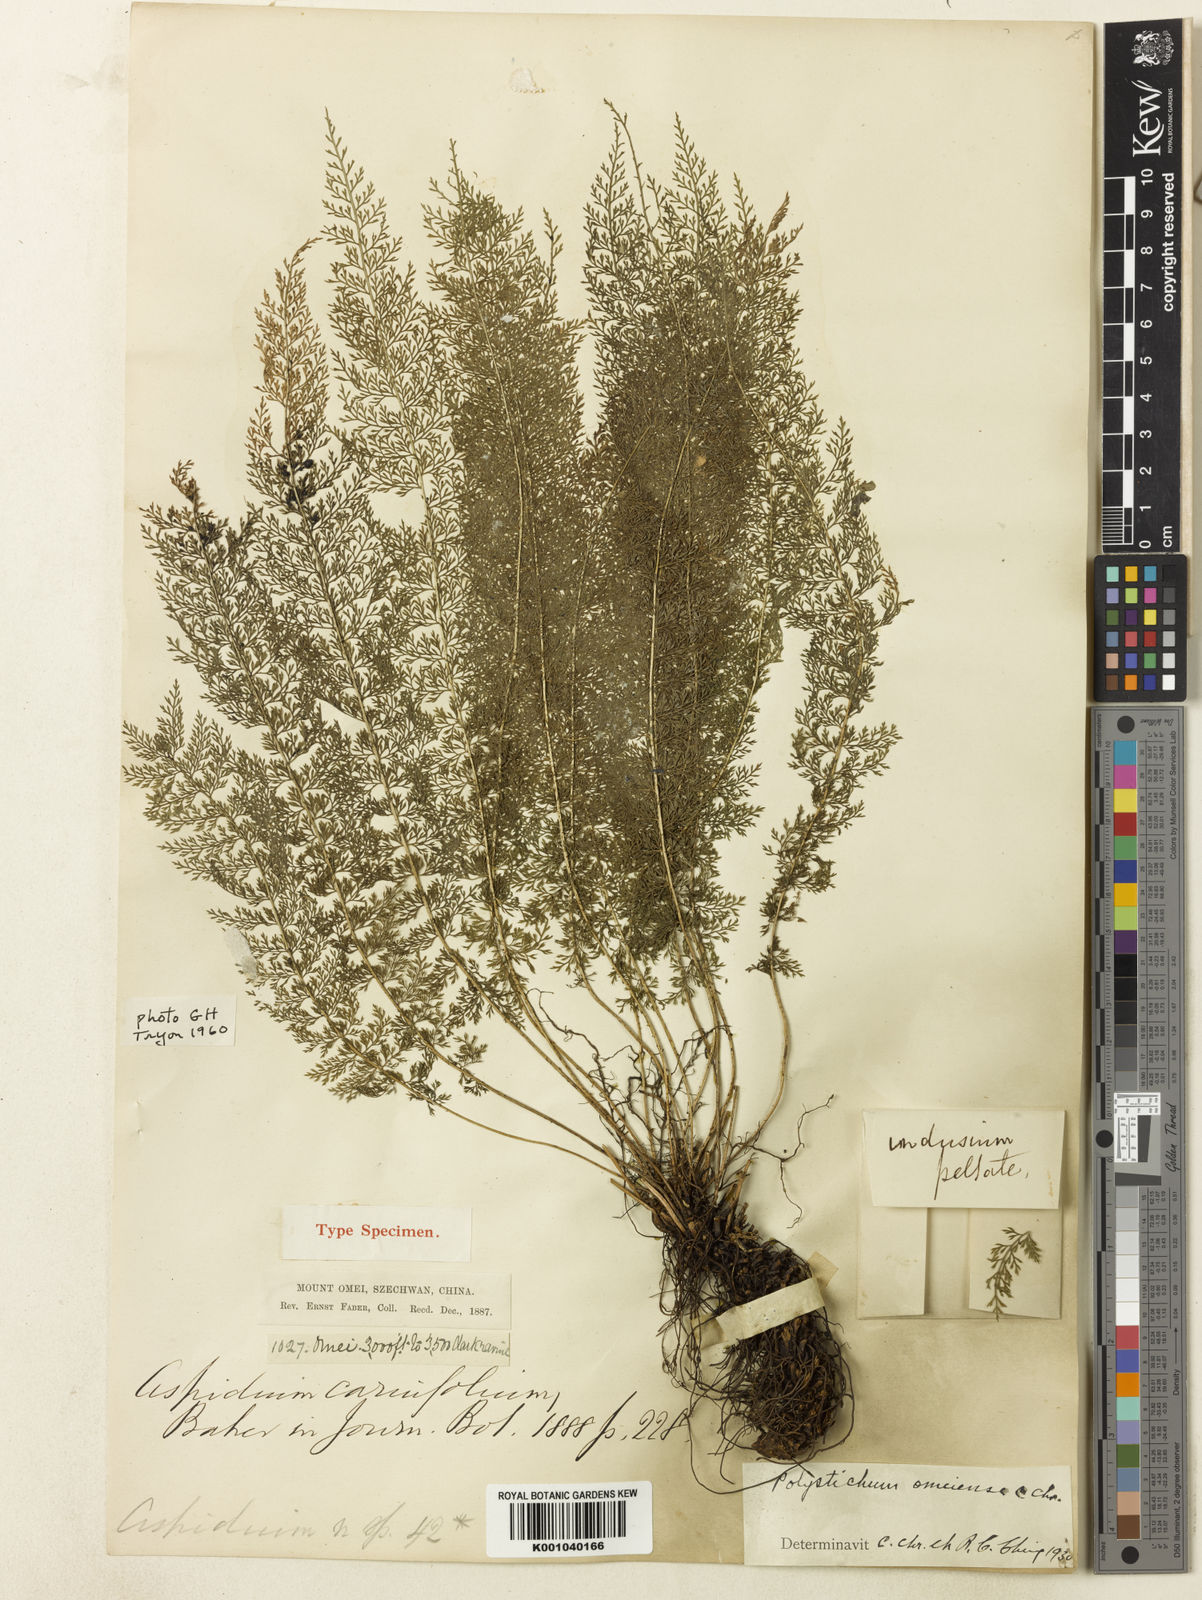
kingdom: Animalia
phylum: Arthropoda
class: Insecta
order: Hemiptera
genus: Acropelta
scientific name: Acropelta
